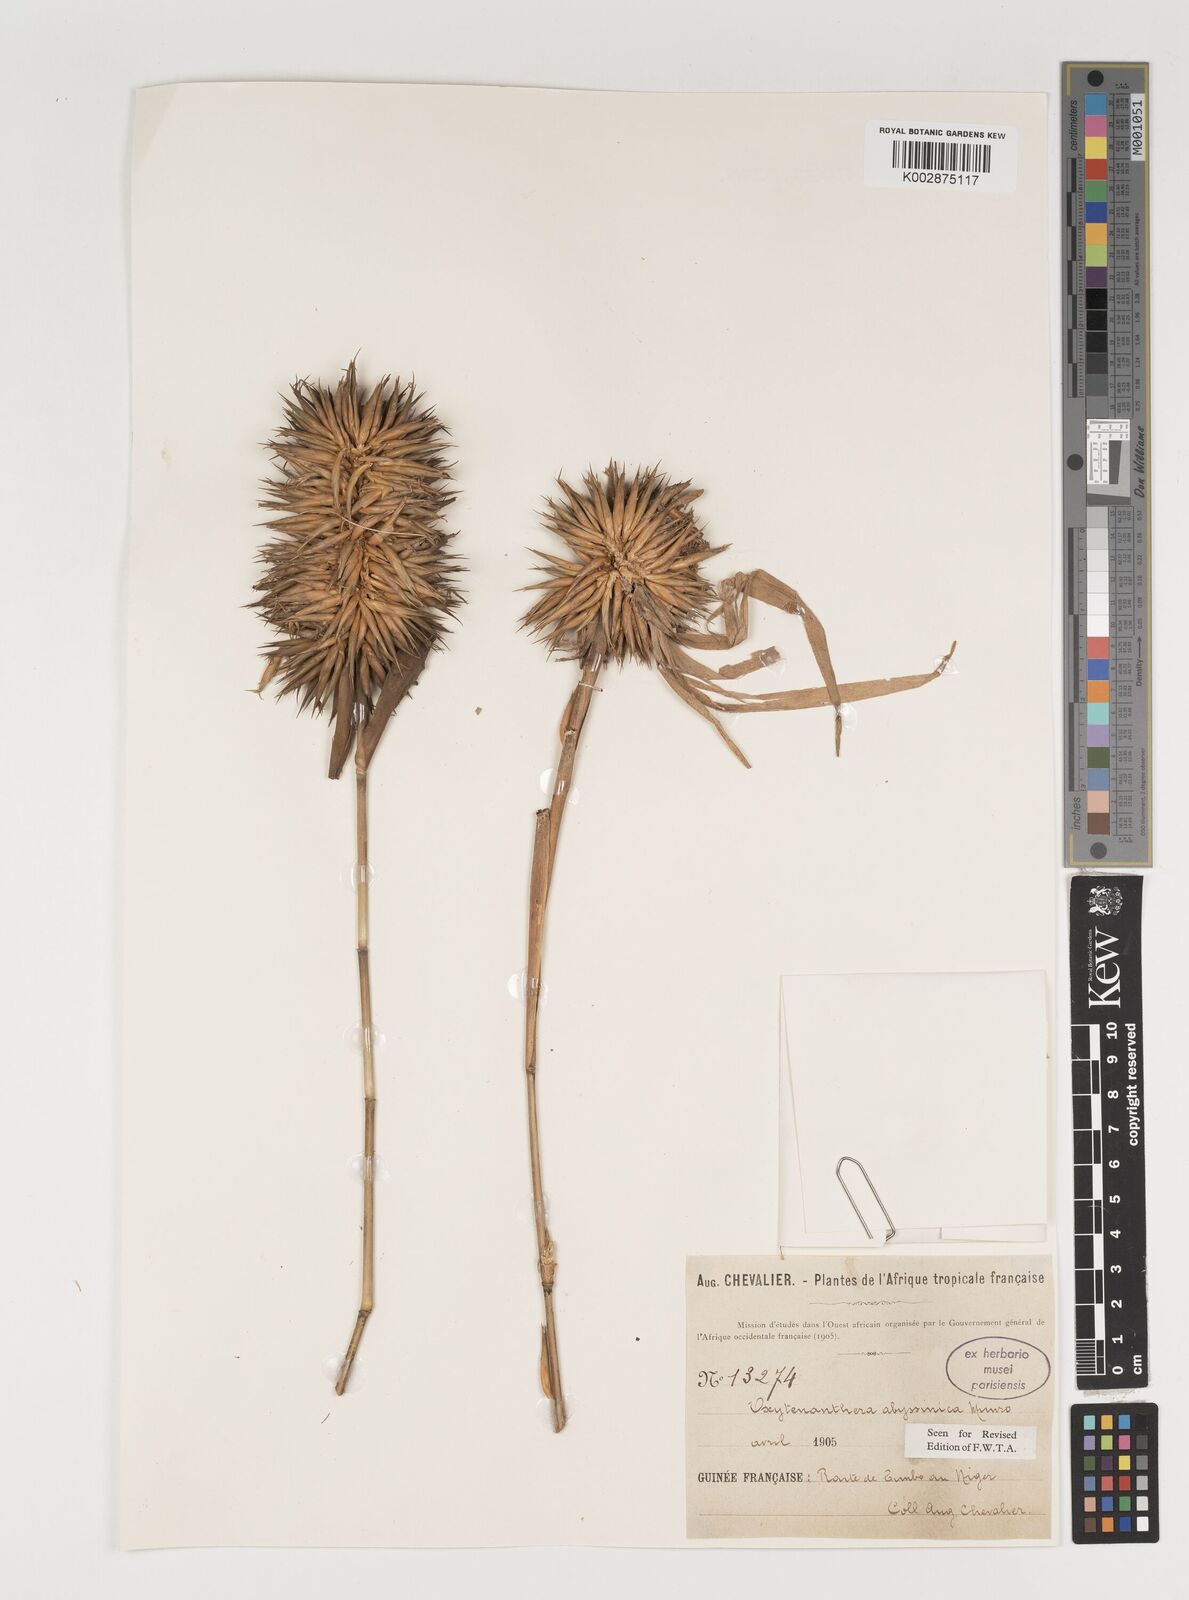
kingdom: Plantae
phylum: Tracheophyta
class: Liliopsida
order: Poales
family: Poaceae
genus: Oxytenanthera
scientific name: Oxytenanthera abyssinica
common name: Wine bamboo
